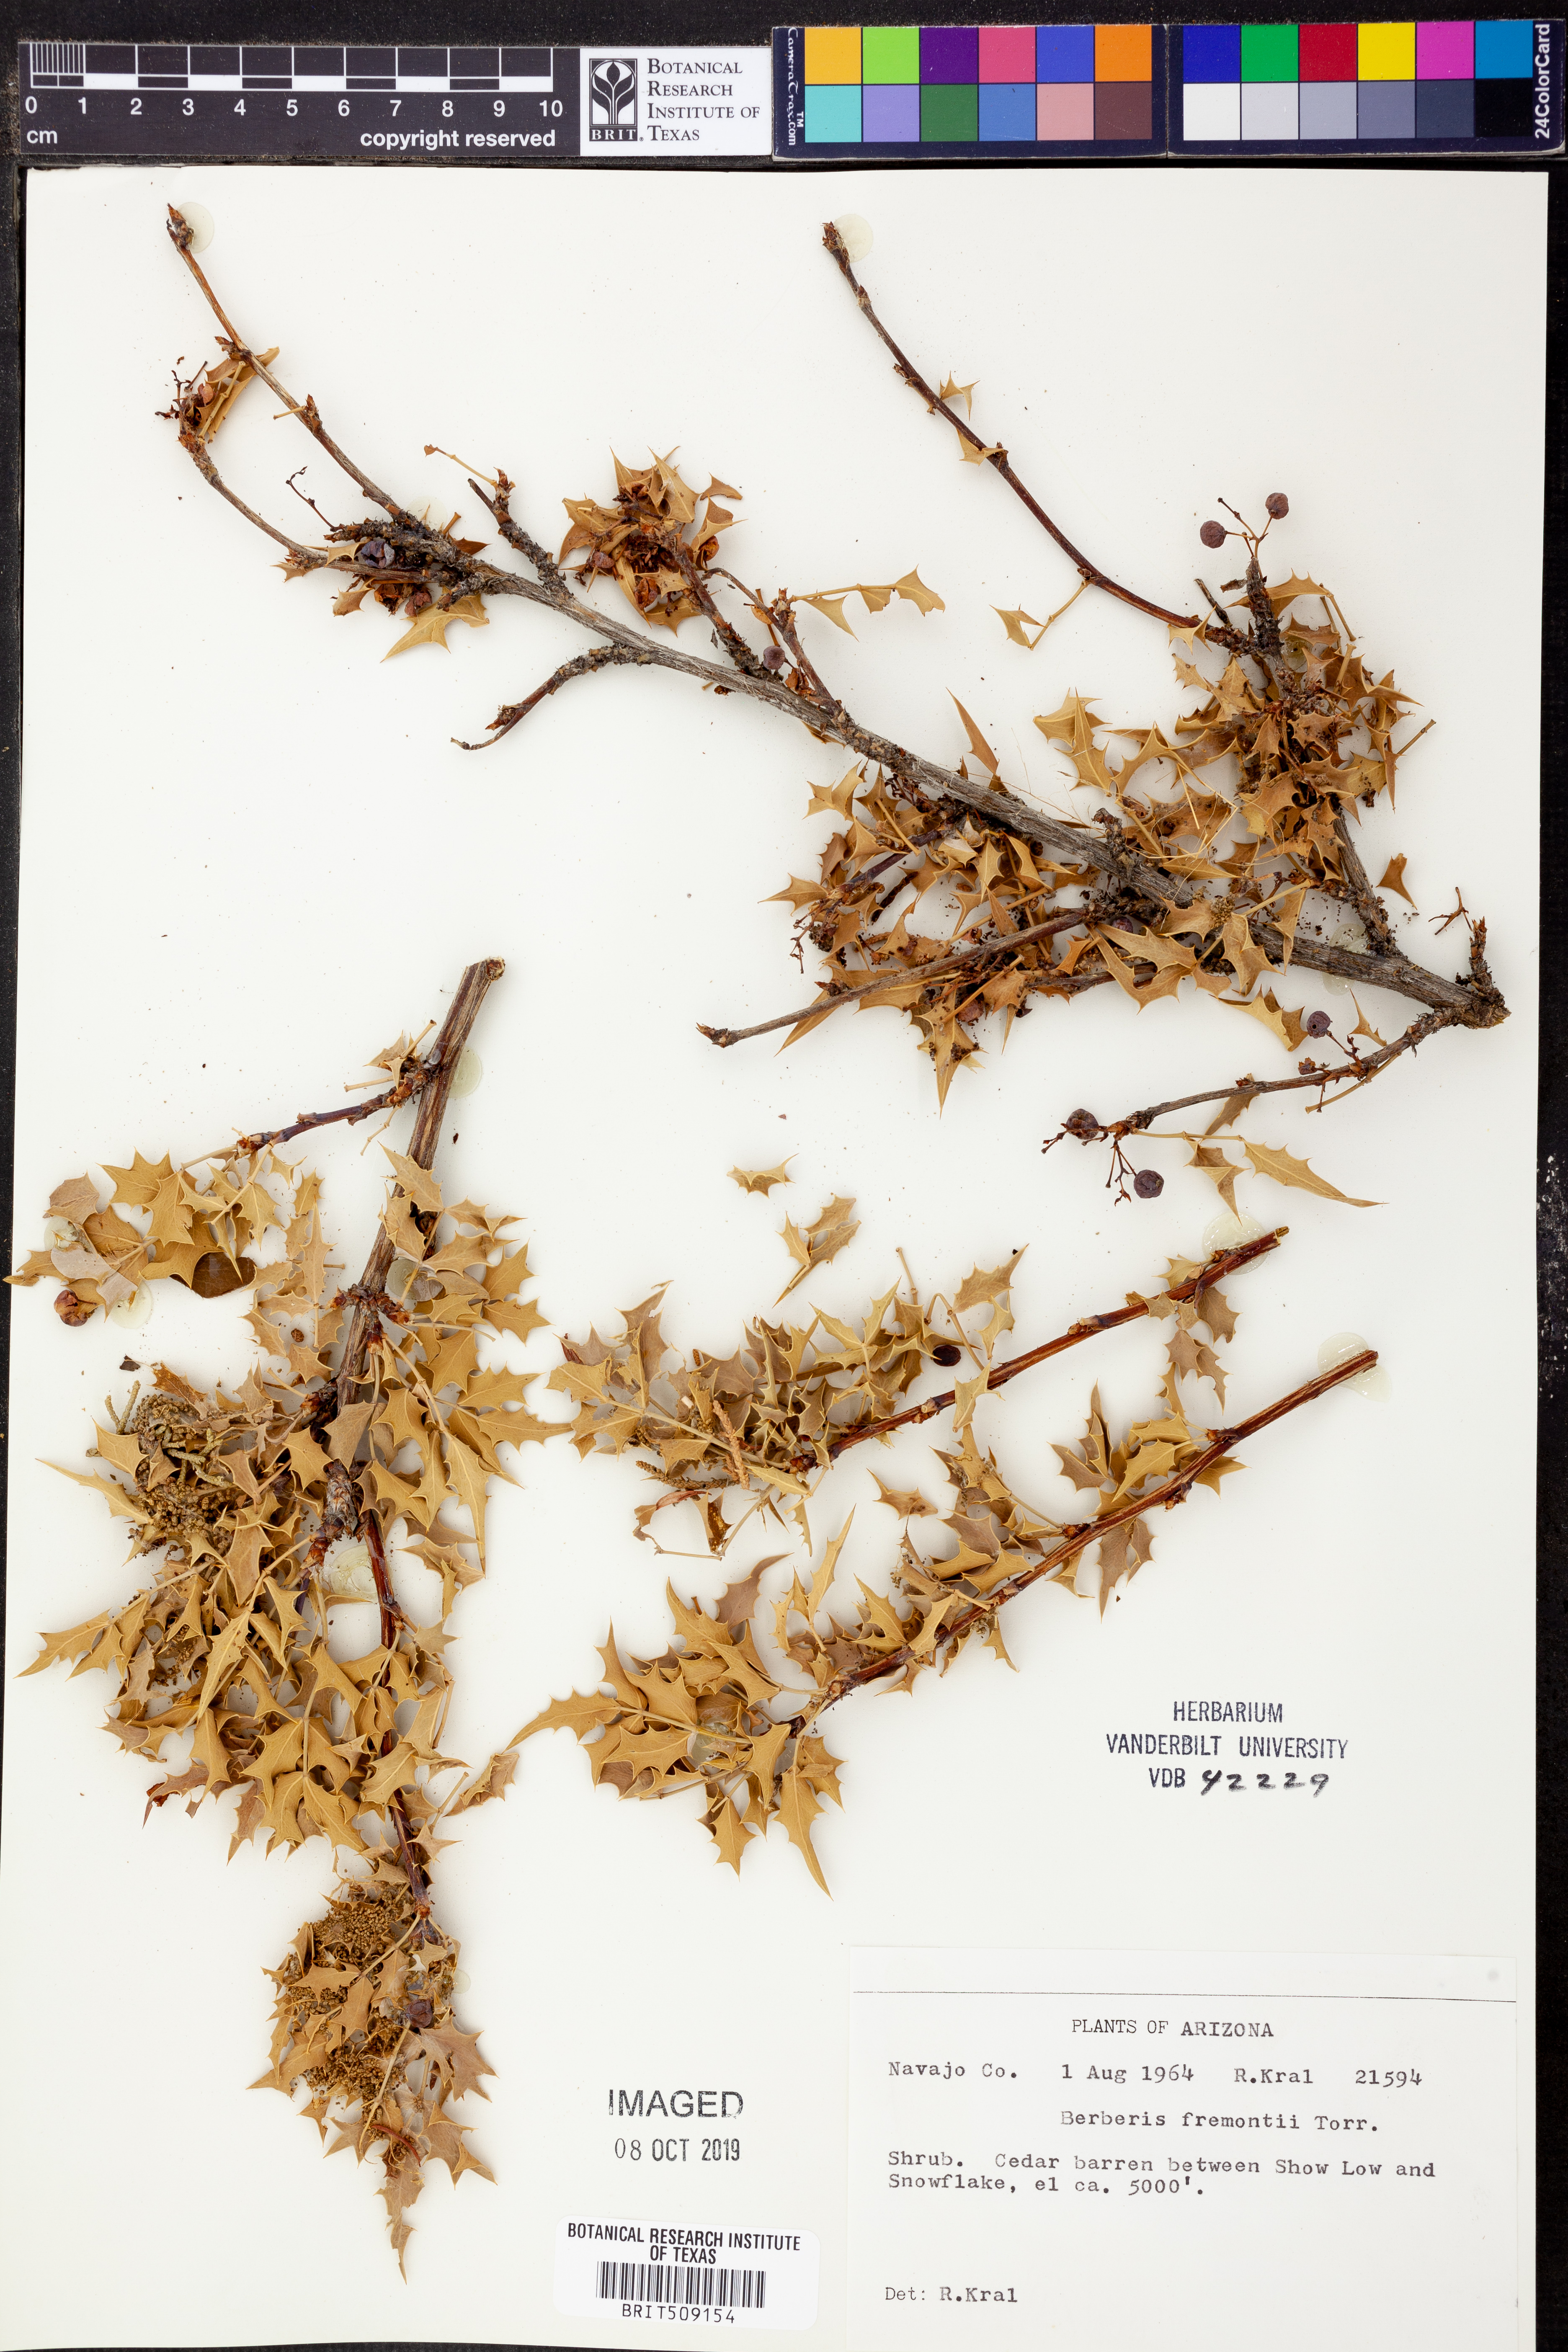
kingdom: Plantae
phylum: Tracheophyta
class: Magnoliopsida
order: Ranunculales
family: Berberidaceae
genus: Alloberberis
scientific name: Alloberberis fremontii
